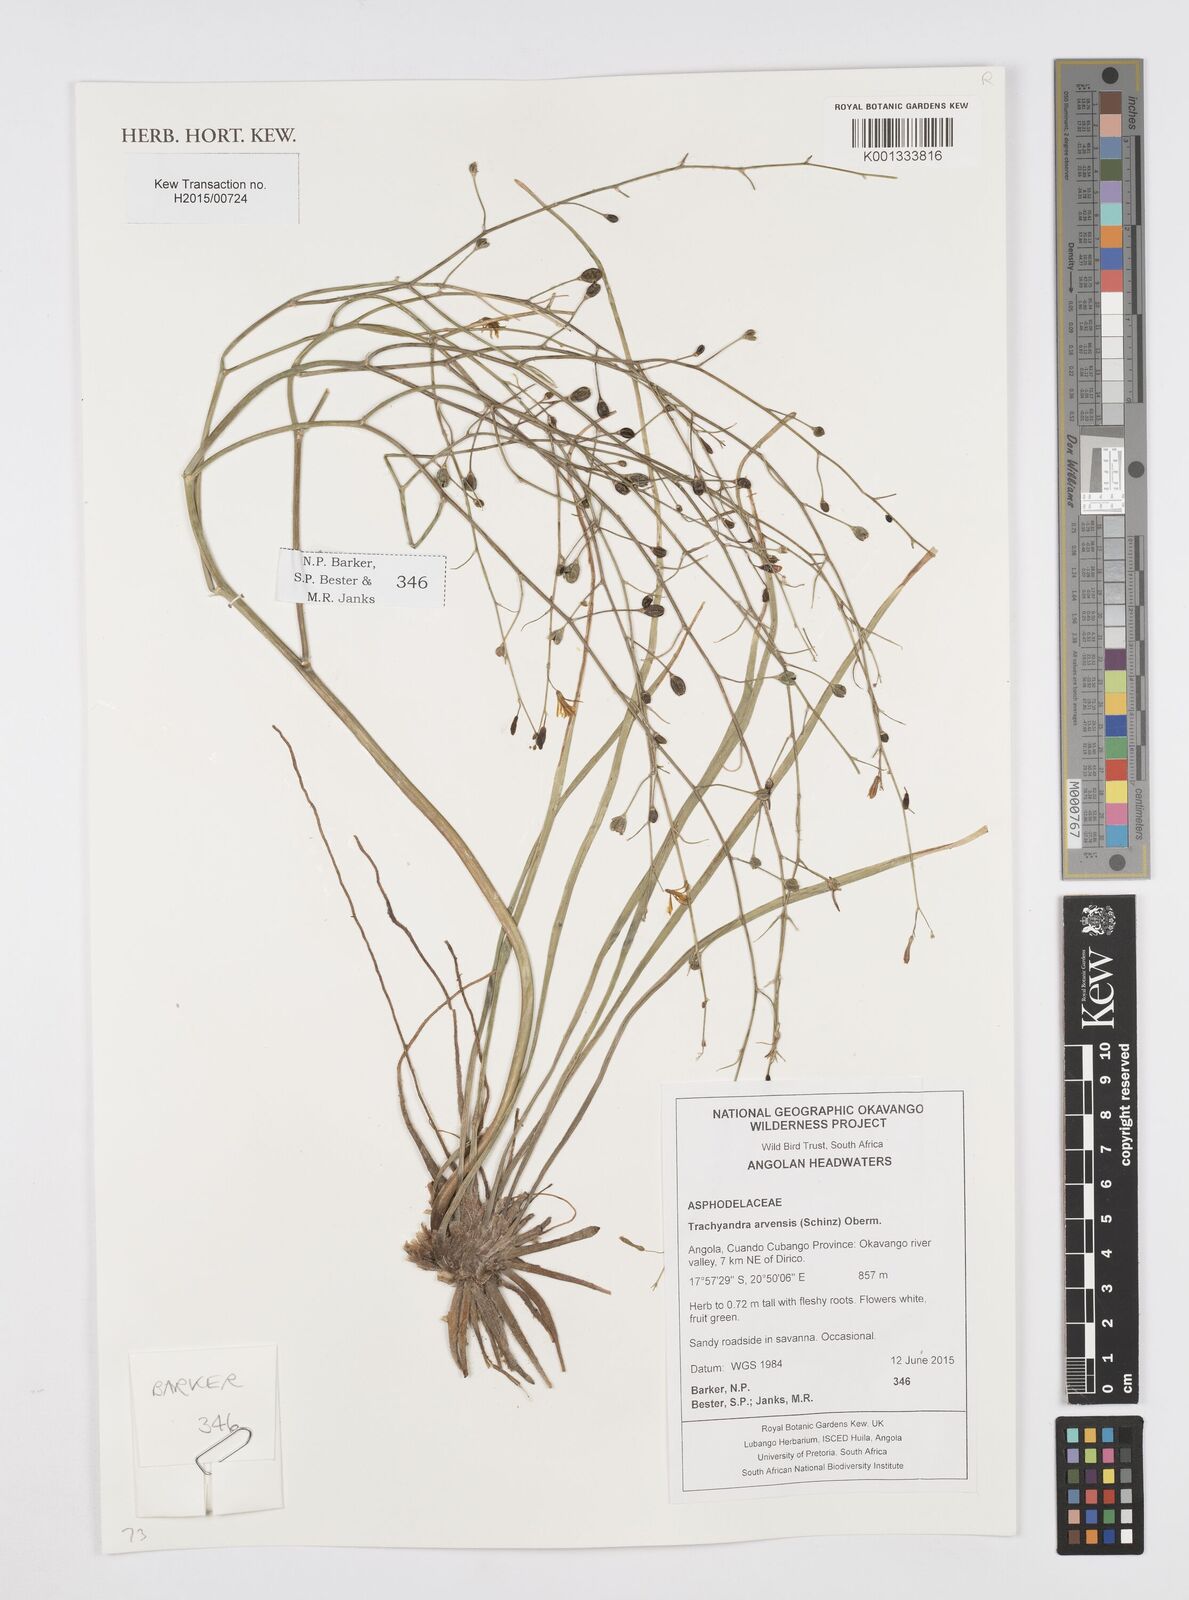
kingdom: Plantae
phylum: Tracheophyta
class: Liliopsida
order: Asparagales
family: Asphodelaceae
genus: Trachyandra
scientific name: Trachyandra arvensis
